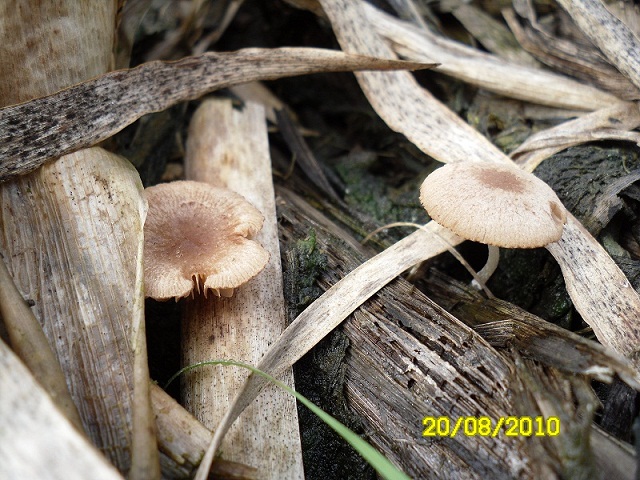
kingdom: Fungi
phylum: Basidiomycota
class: Agaricomycetes
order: Agaricales
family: Psathyrellaceae
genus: Candolleomyces
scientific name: Candolleomyces typhae
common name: dunhammer-mørkhat
